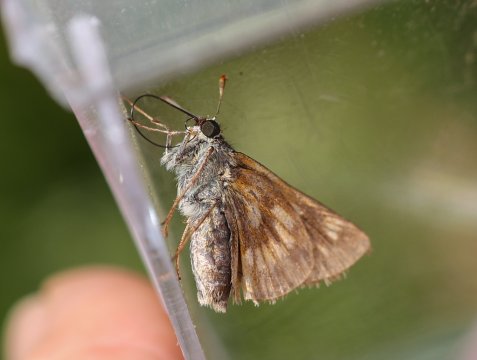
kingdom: Animalia
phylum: Arthropoda
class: Insecta
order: Lepidoptera
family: Hesperiidae
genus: Polites
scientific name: Polites
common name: Long Dash Skipper
